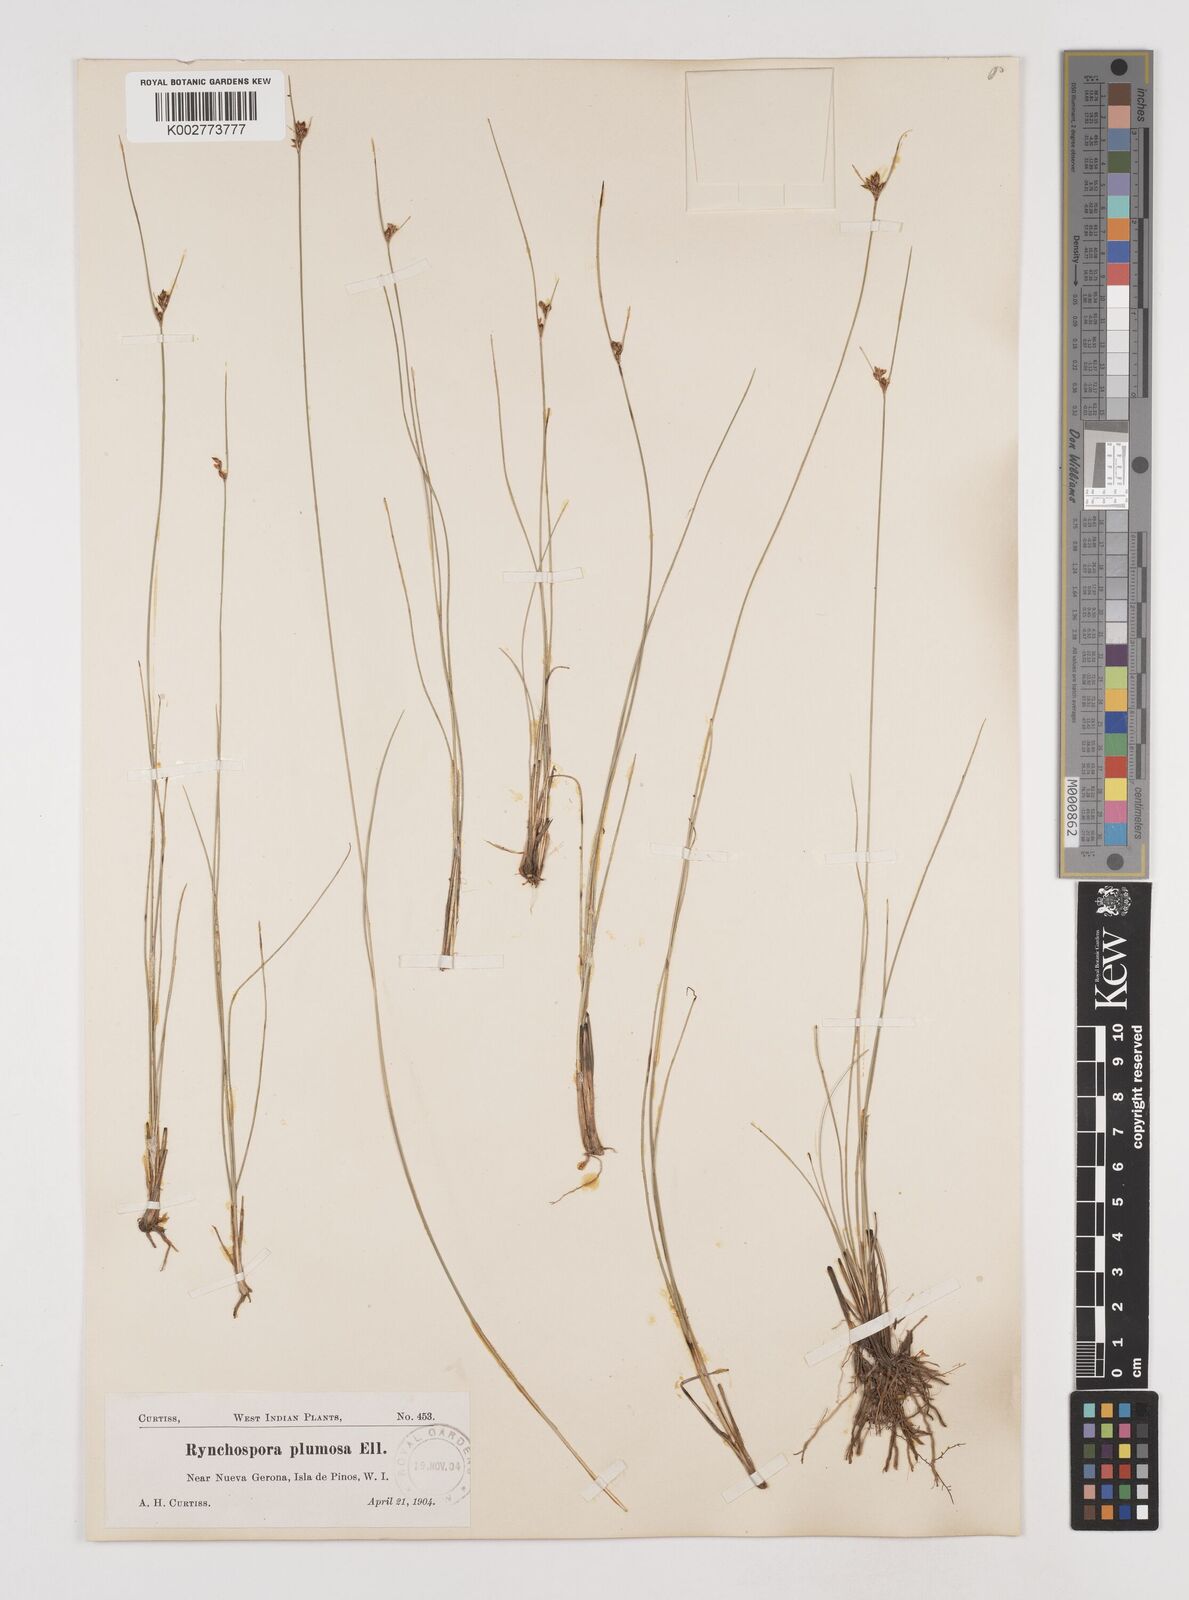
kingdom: Plantae
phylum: Tracheophyta
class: Liliopsida
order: Poales
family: Cyperaceae
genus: Rhynchospora
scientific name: Rhynchospora plumosa
